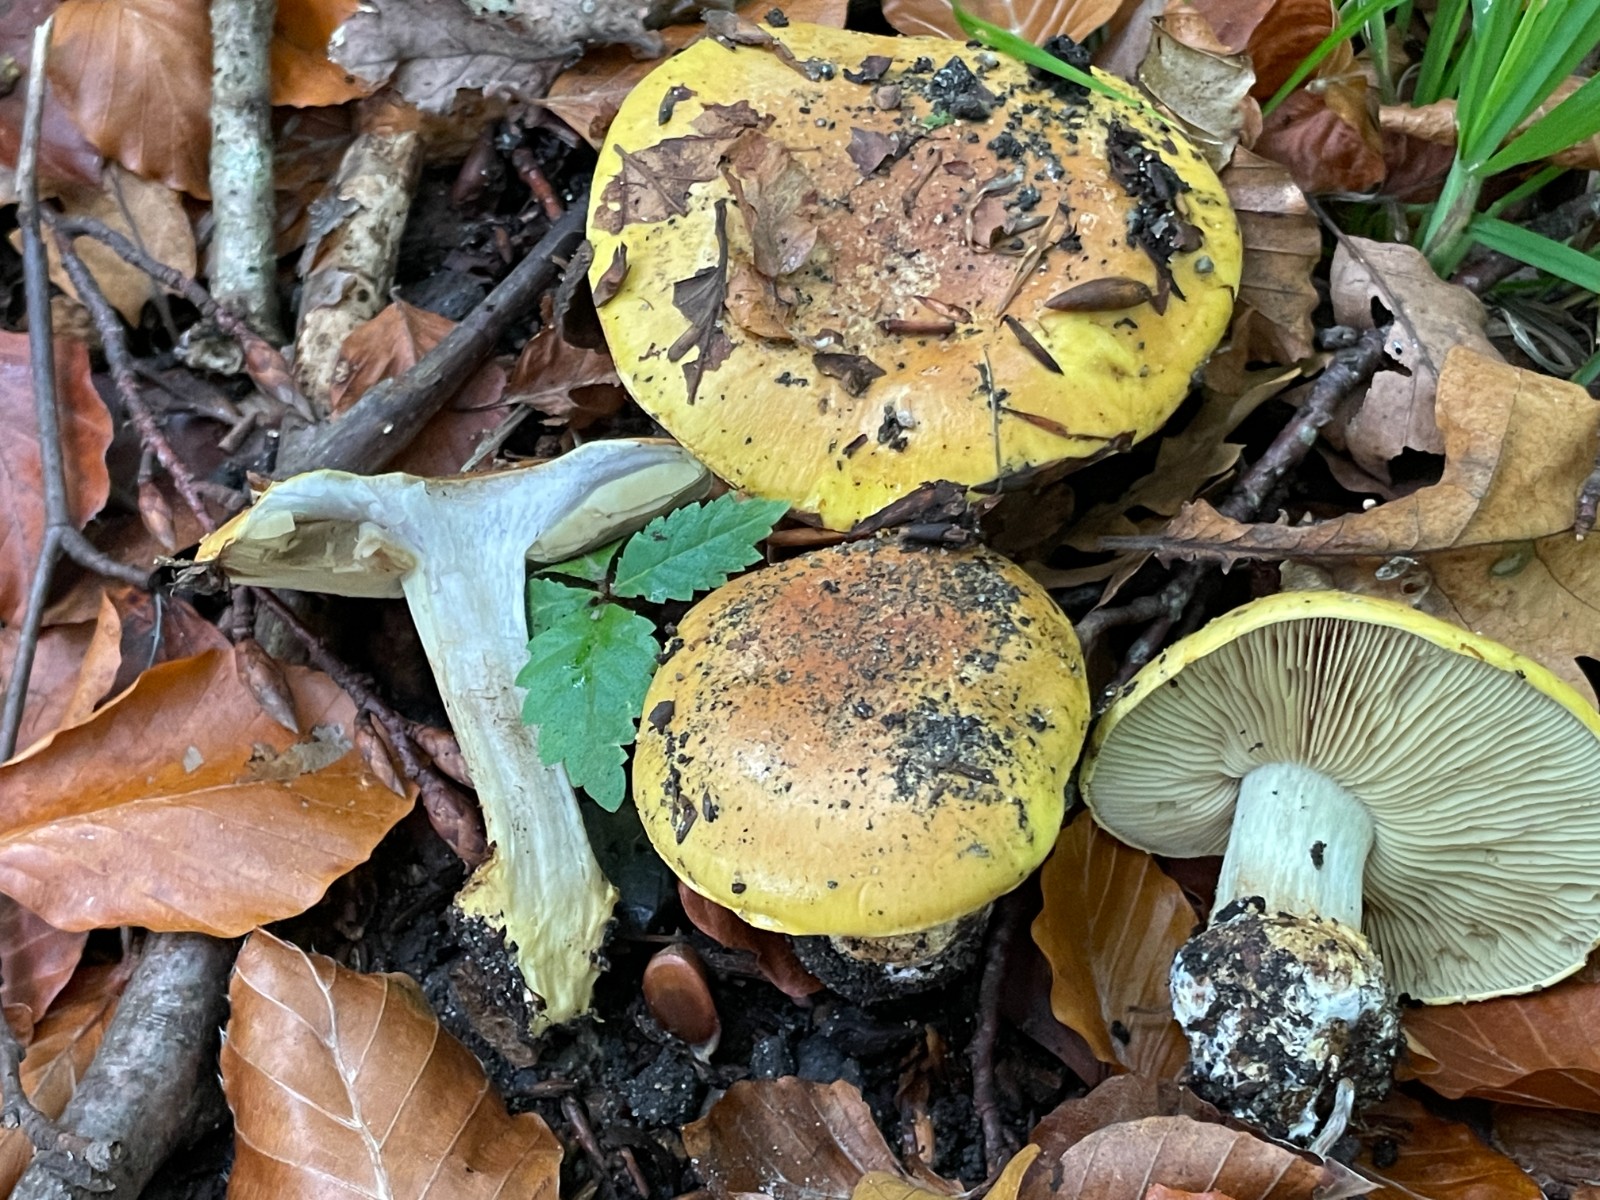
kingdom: Fungi
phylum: Basidiomycota
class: Agaricomycetes
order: Agaricales
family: Cortinariaceae
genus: Cortinarius
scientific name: Cortinarius bergeronii
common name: prægtig slørhat
